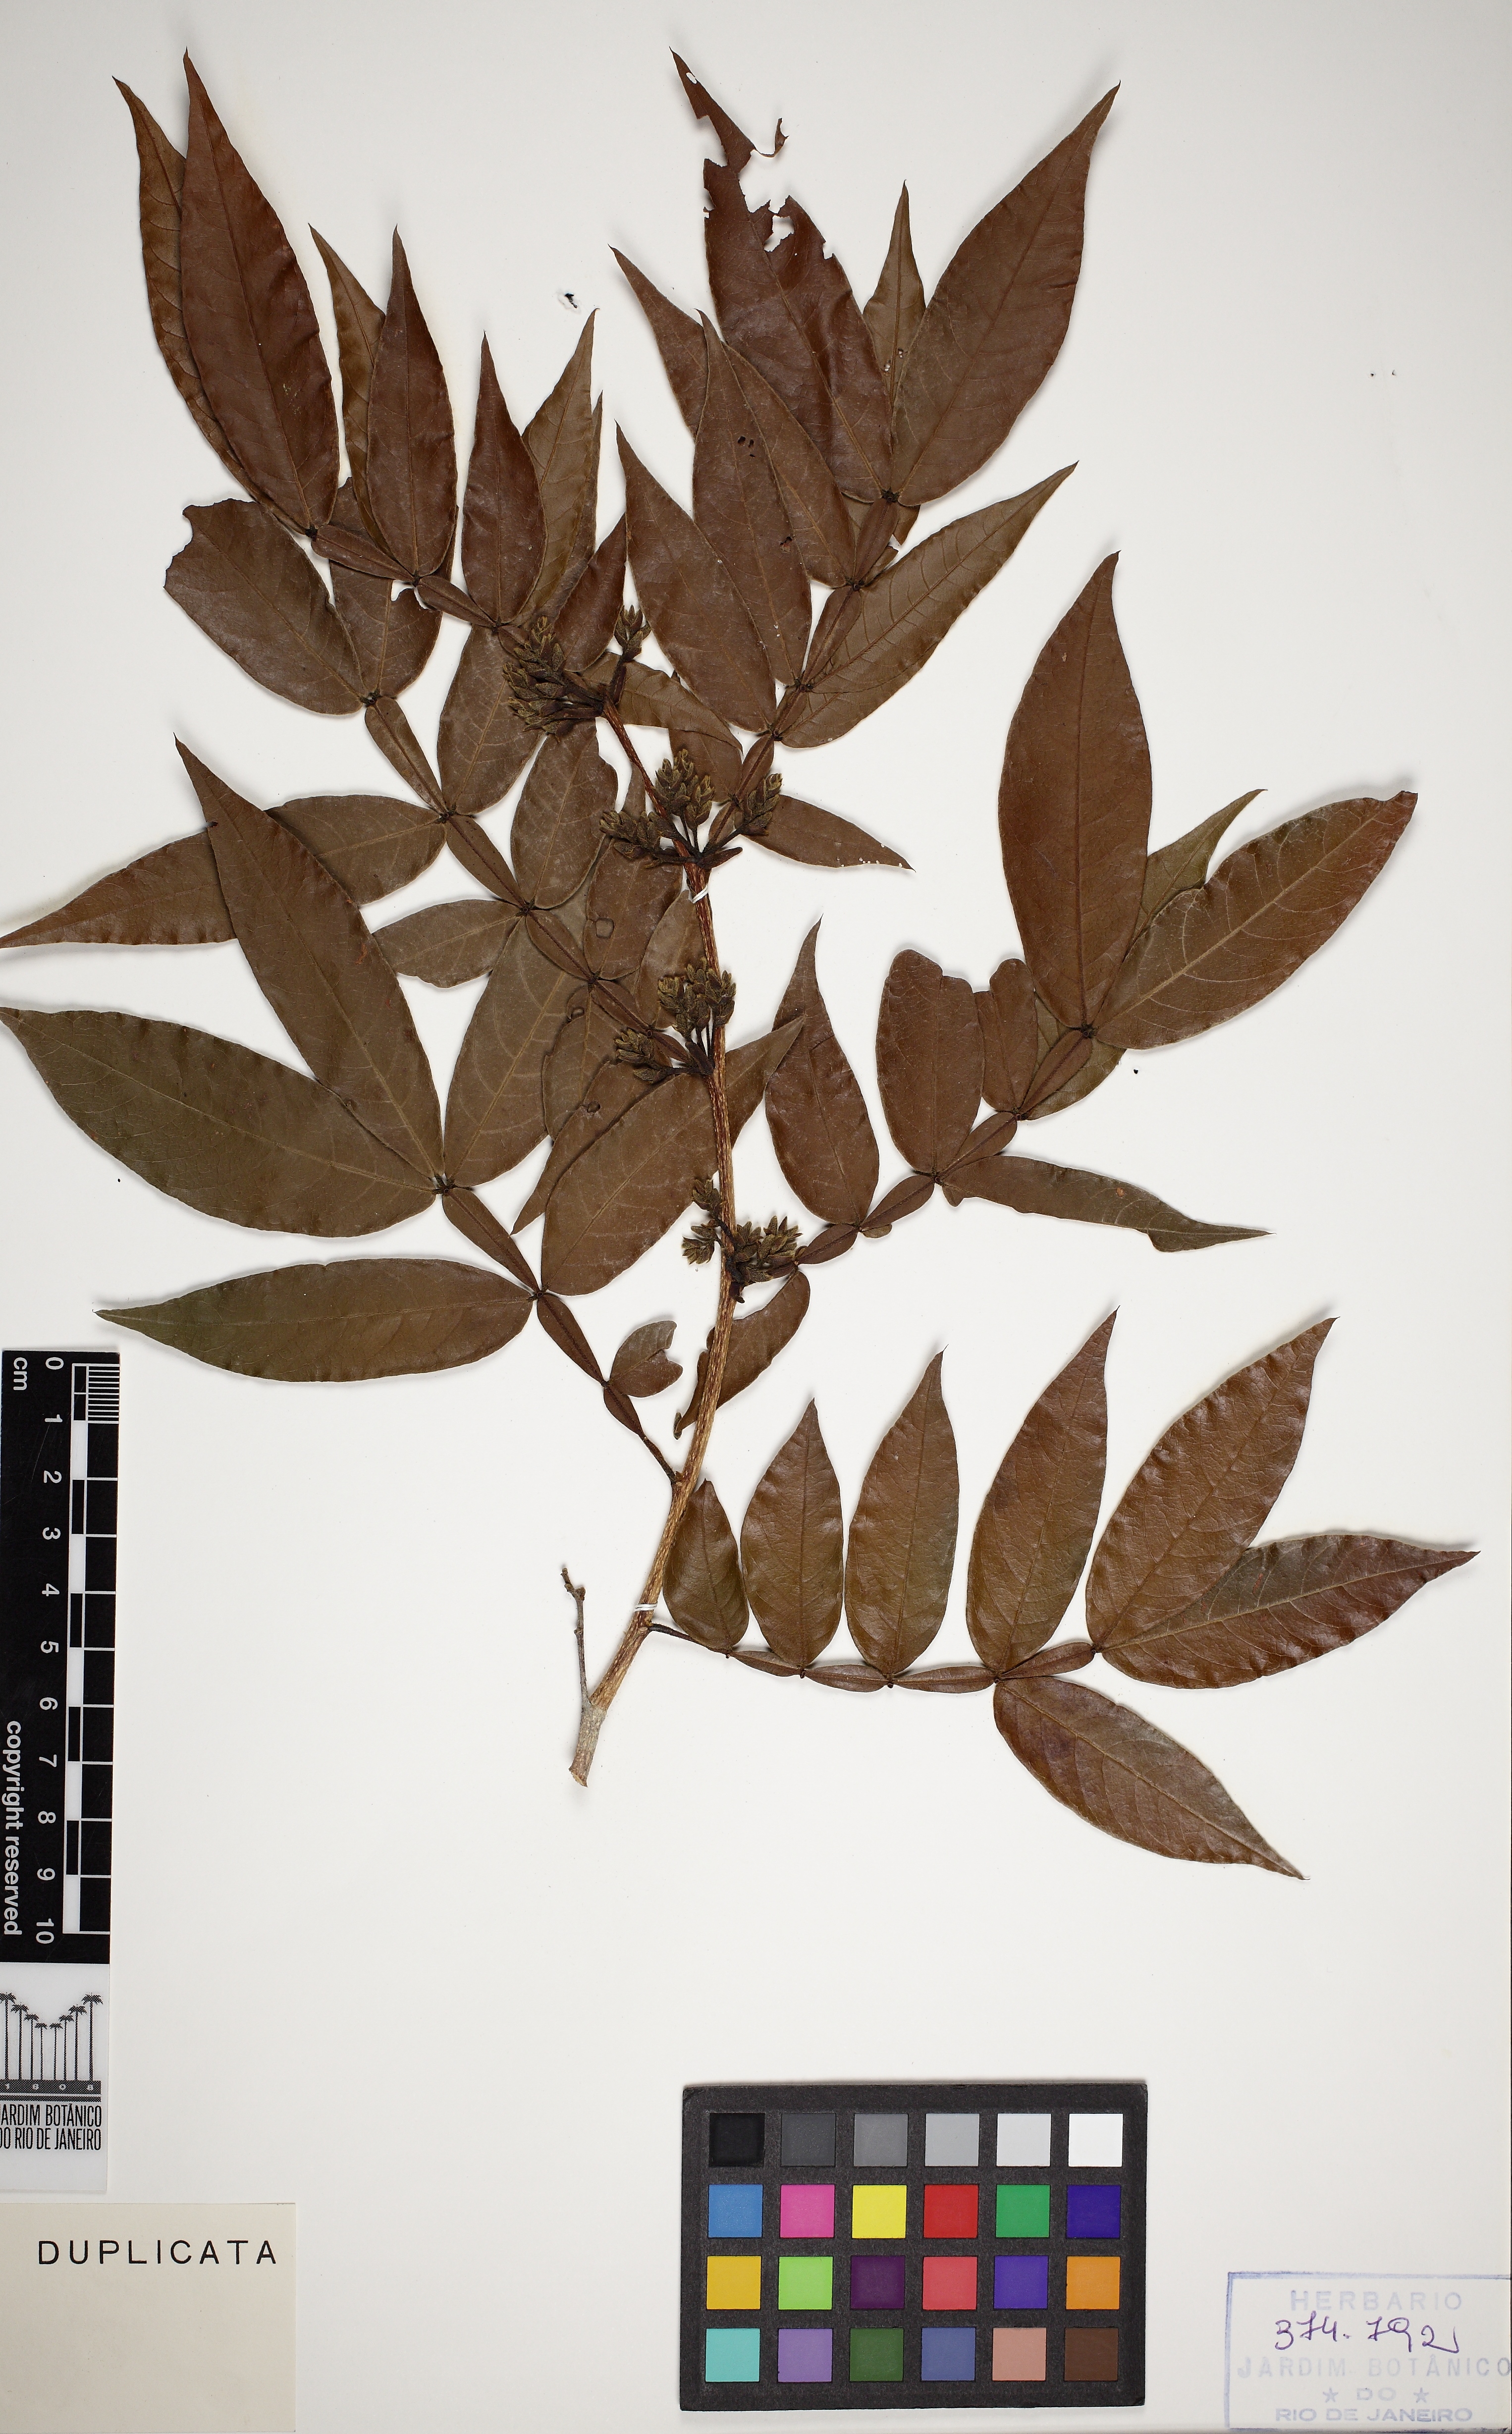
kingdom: Plantae
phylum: Tracheophyta
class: Magnoliopsida
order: Fabales
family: Fabaceae
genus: Inga
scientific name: Inga disticha
